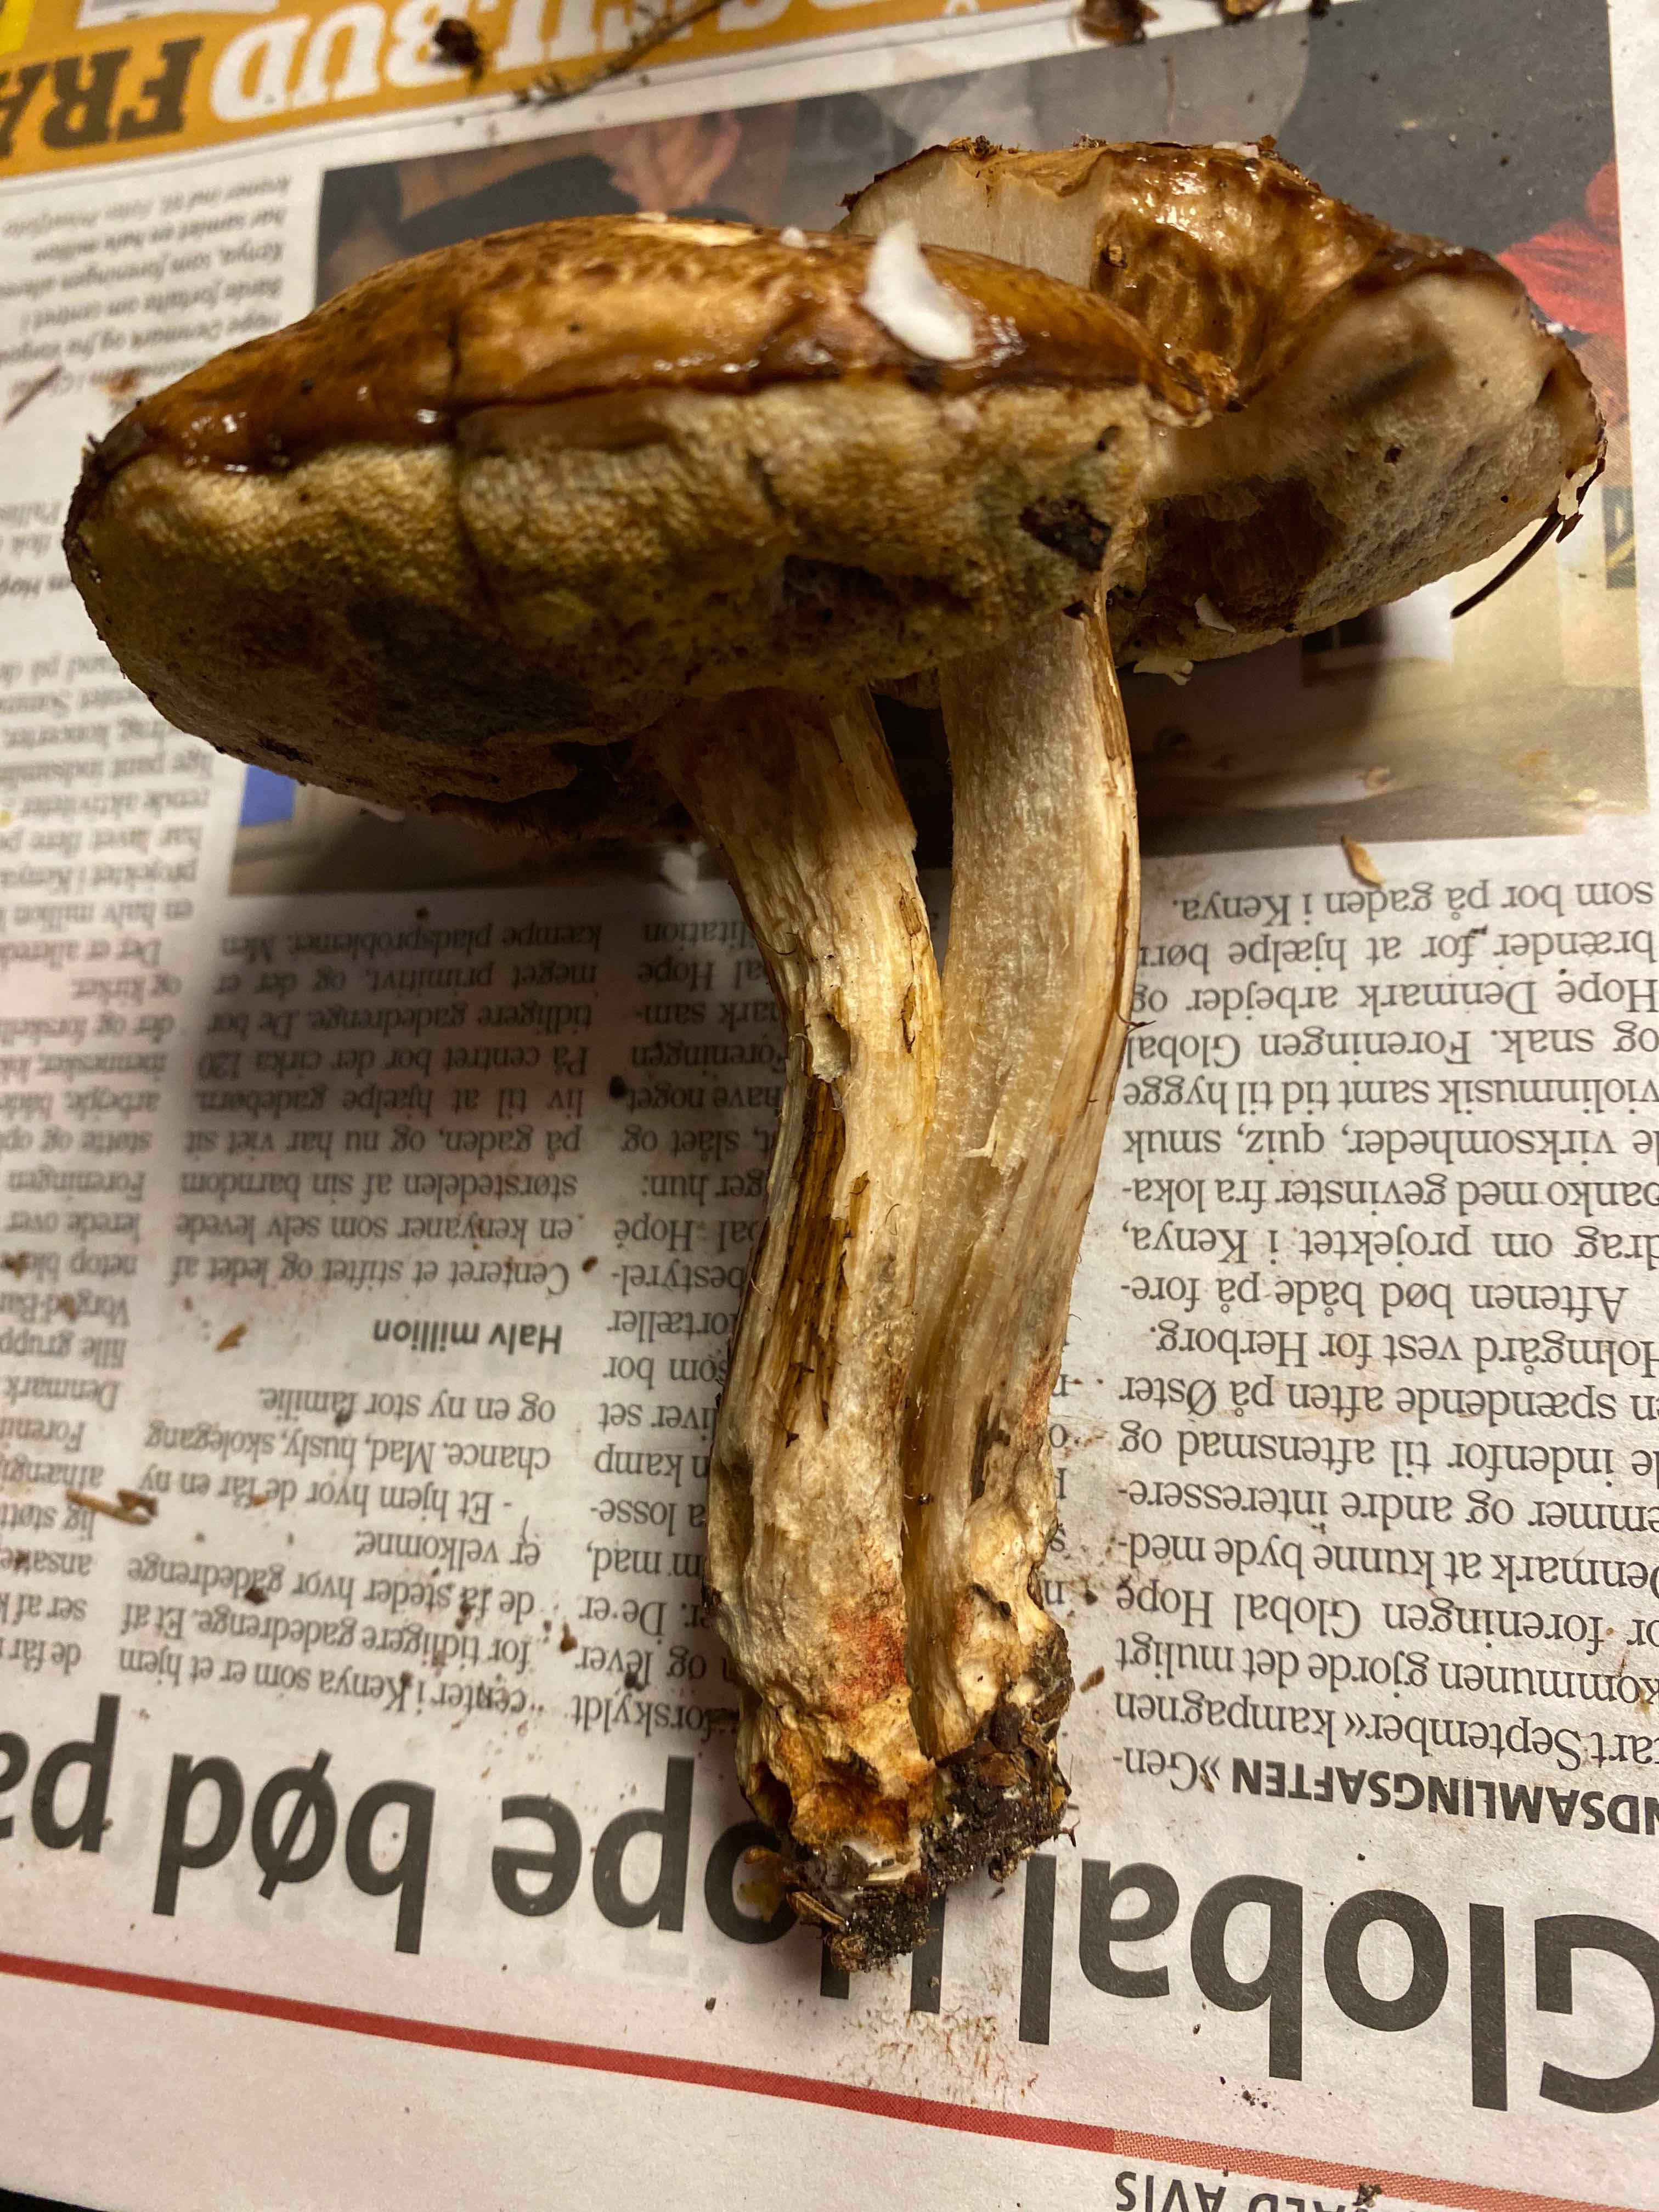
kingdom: Fungi
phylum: Basidiomycota
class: Agaricomycetes
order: Boletales
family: Boletaceae
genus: Leccinum
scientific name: Leccinum
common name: skælrørhat
